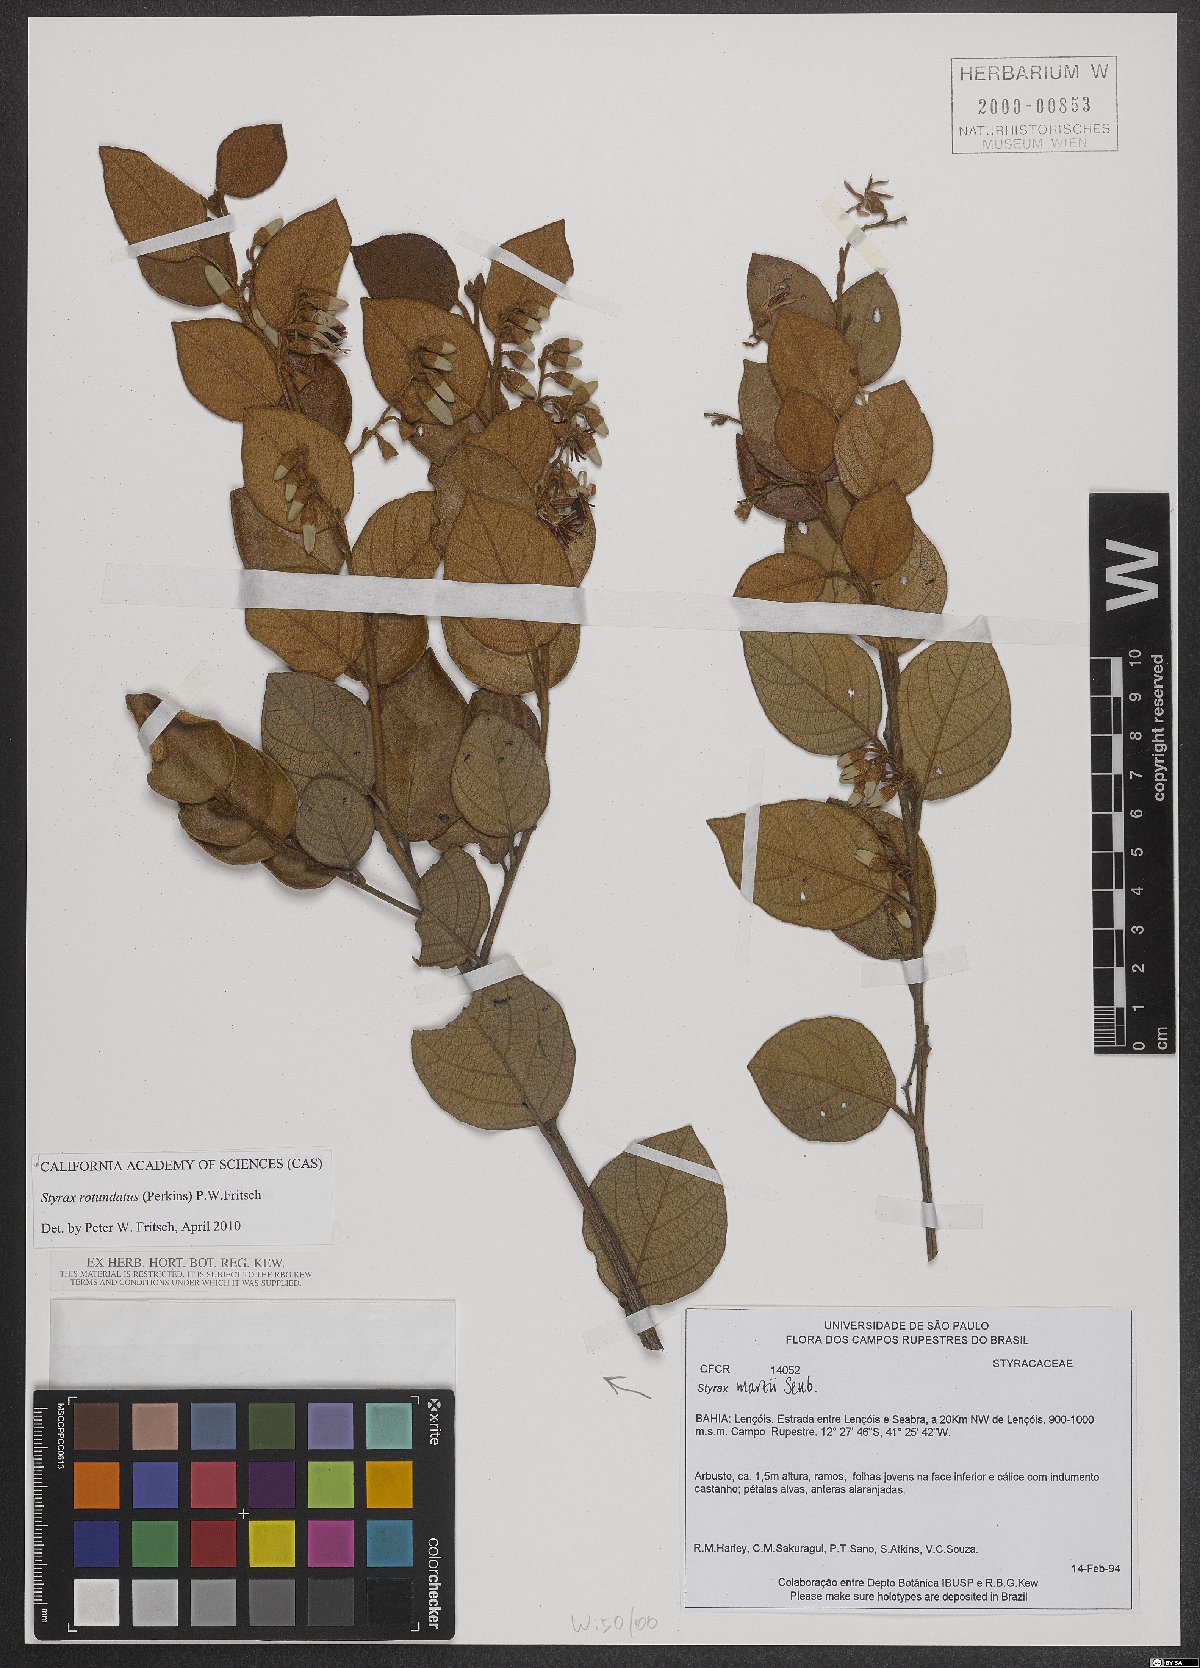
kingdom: Plantae
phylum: Tracheophyta
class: Magnoliopsida
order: Ericales
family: Styracaceae
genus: Styrax
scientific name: Styrax rotundatus
